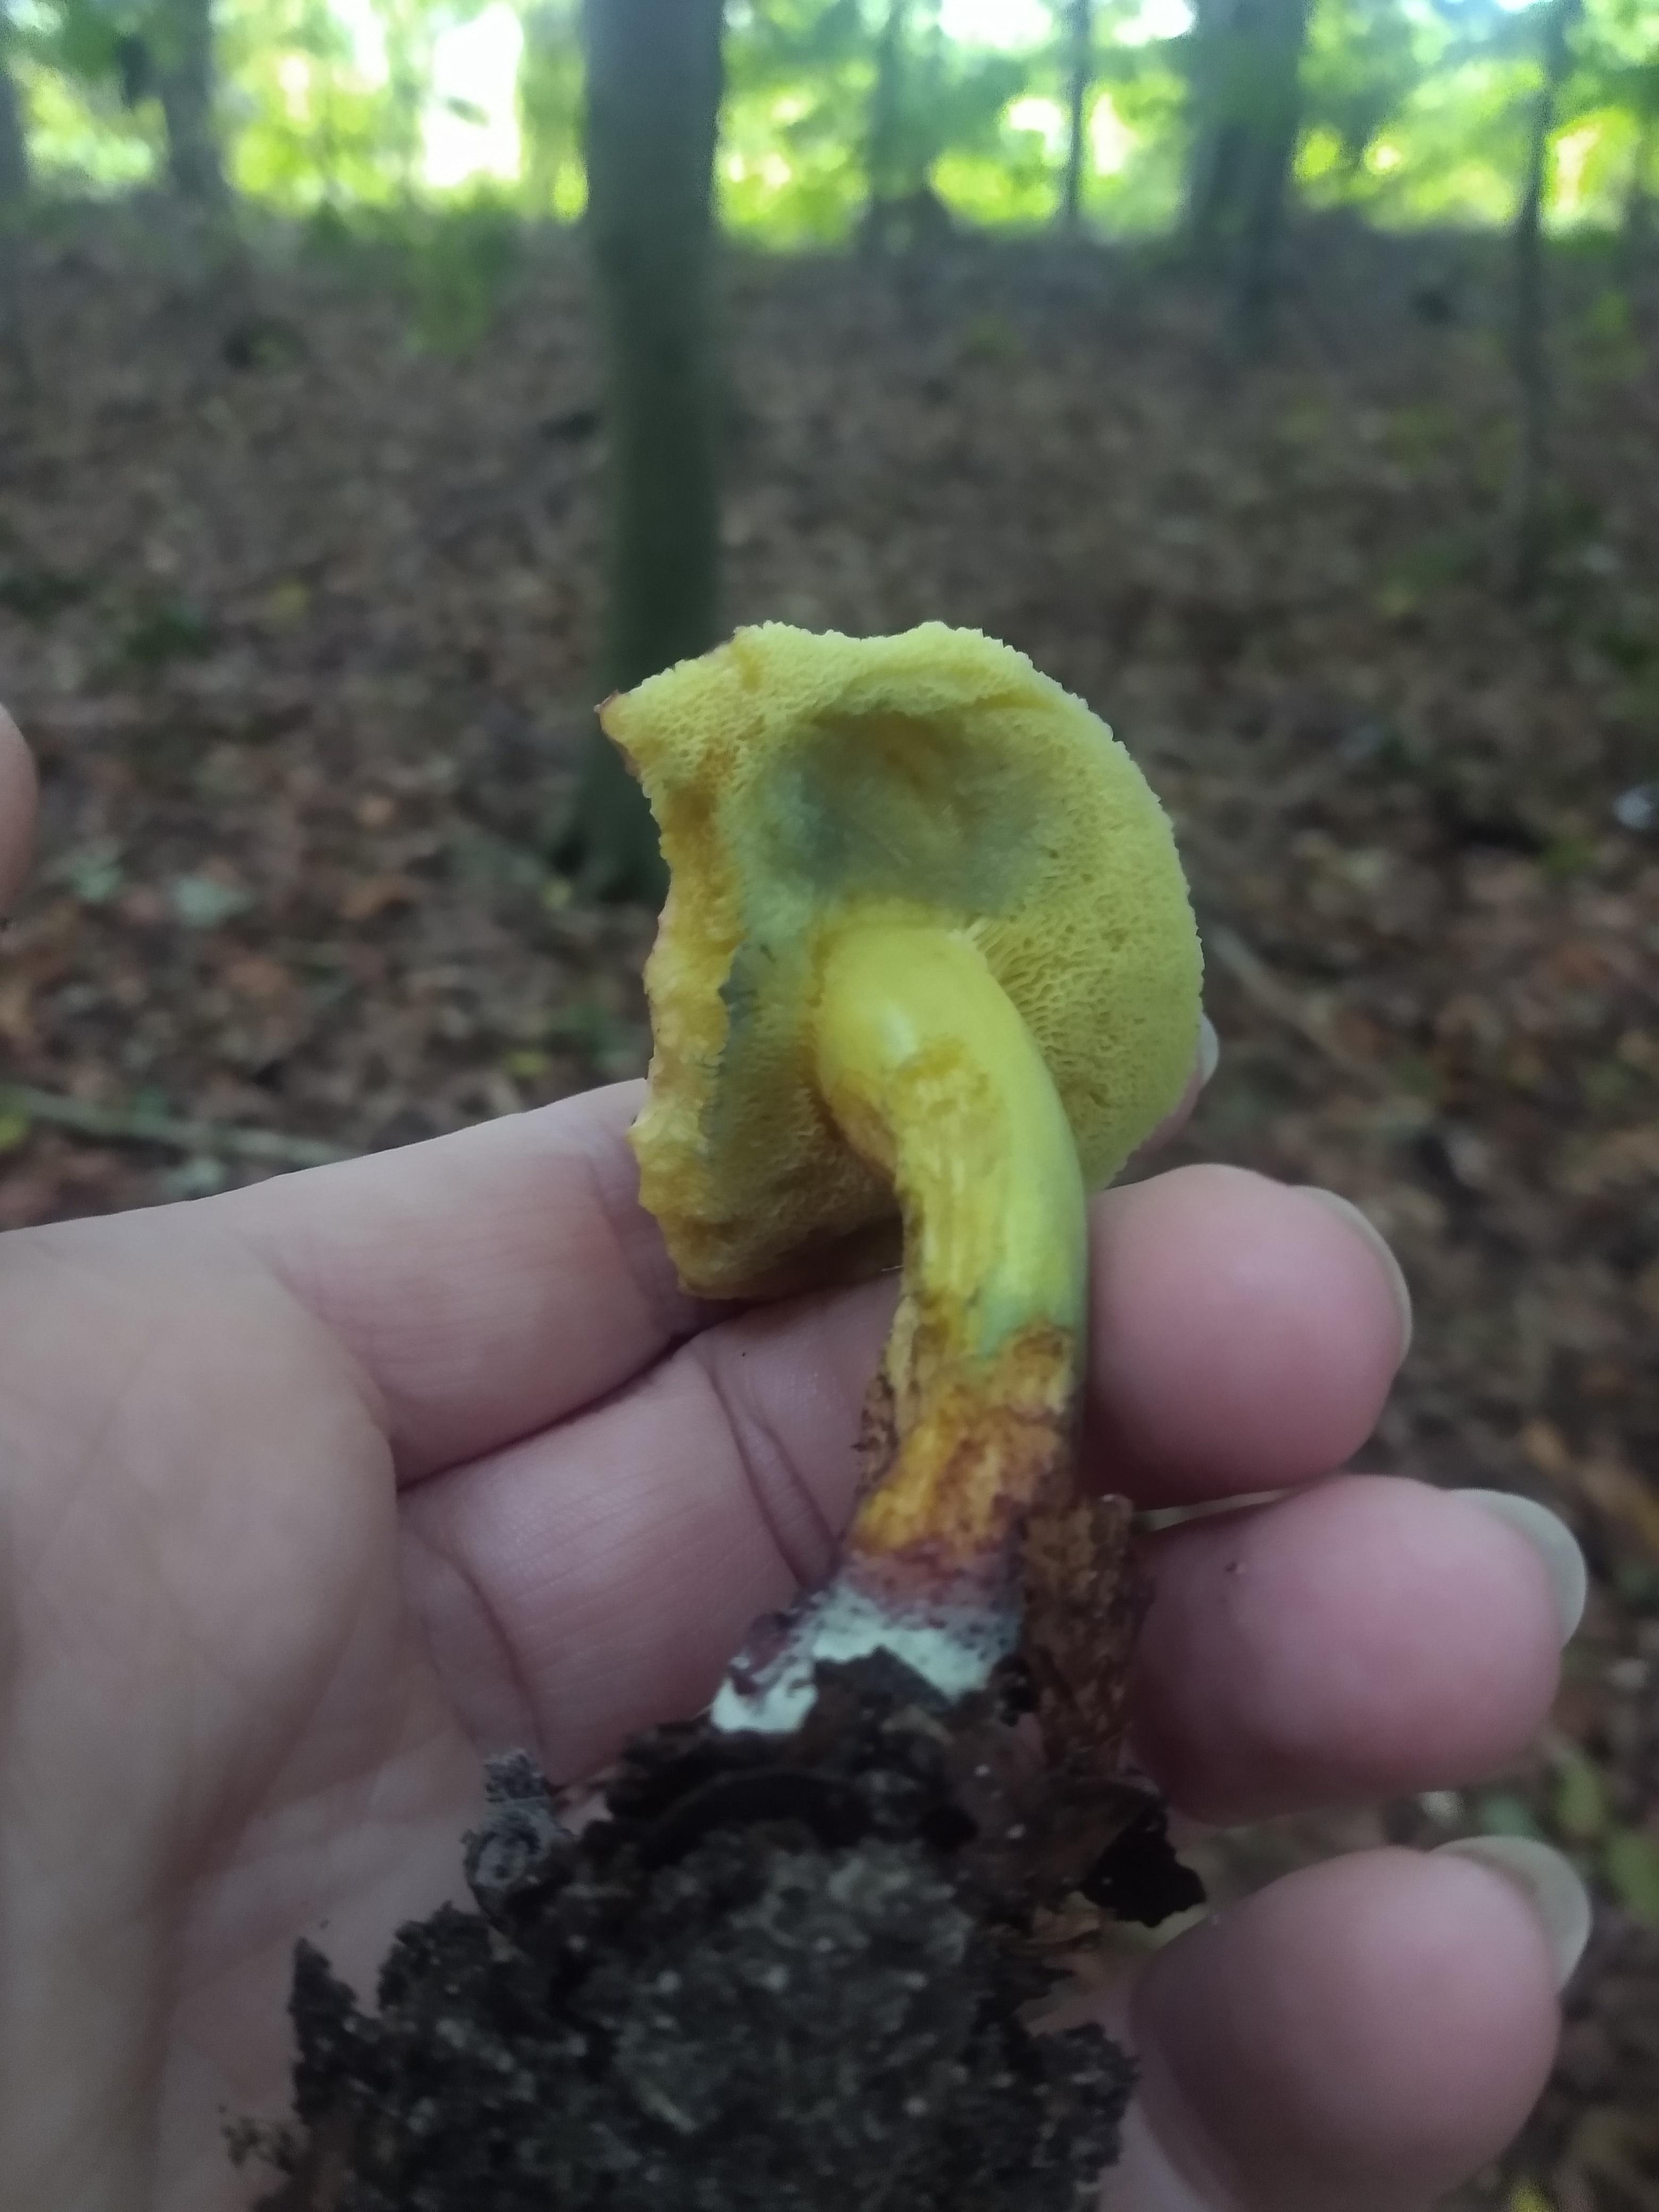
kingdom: Fungi
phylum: Basidiomycota
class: Agaricomycetes
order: Boletales
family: Boletaceae
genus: Xerocomellus
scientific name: Xerocomellus cisalpinus
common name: finsprukken rørhat
